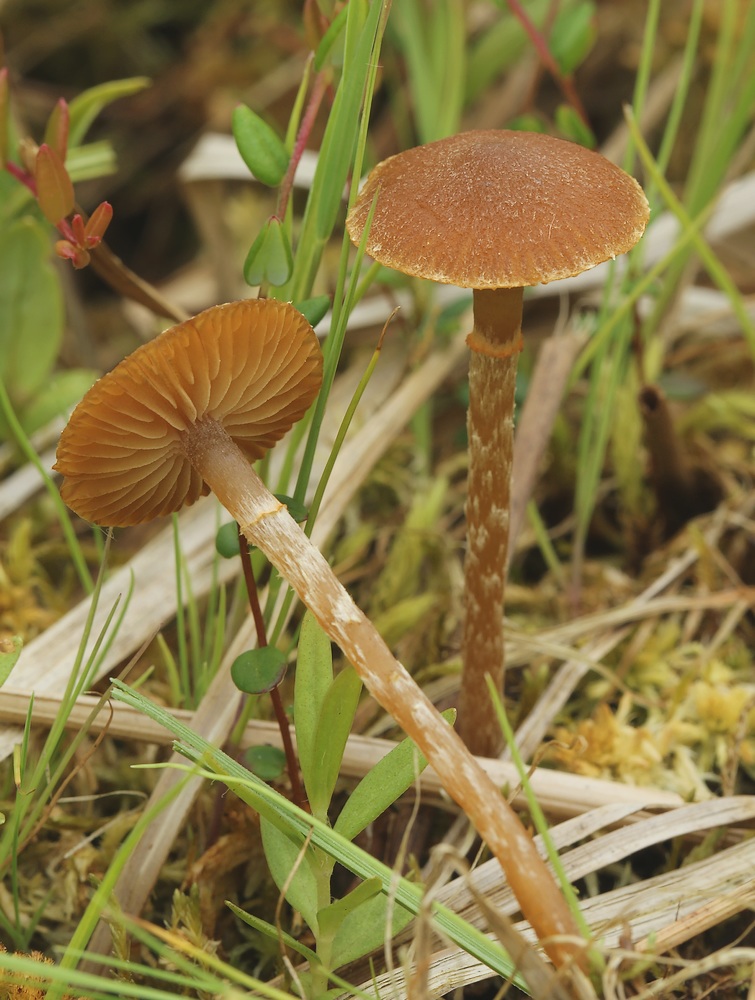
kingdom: Fungi
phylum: Basidiomycota
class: Agaricomycetes
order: Agaricales
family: Hymenogastraceae
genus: Galerina
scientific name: Galerina paludosa
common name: mose-hjelmhat
